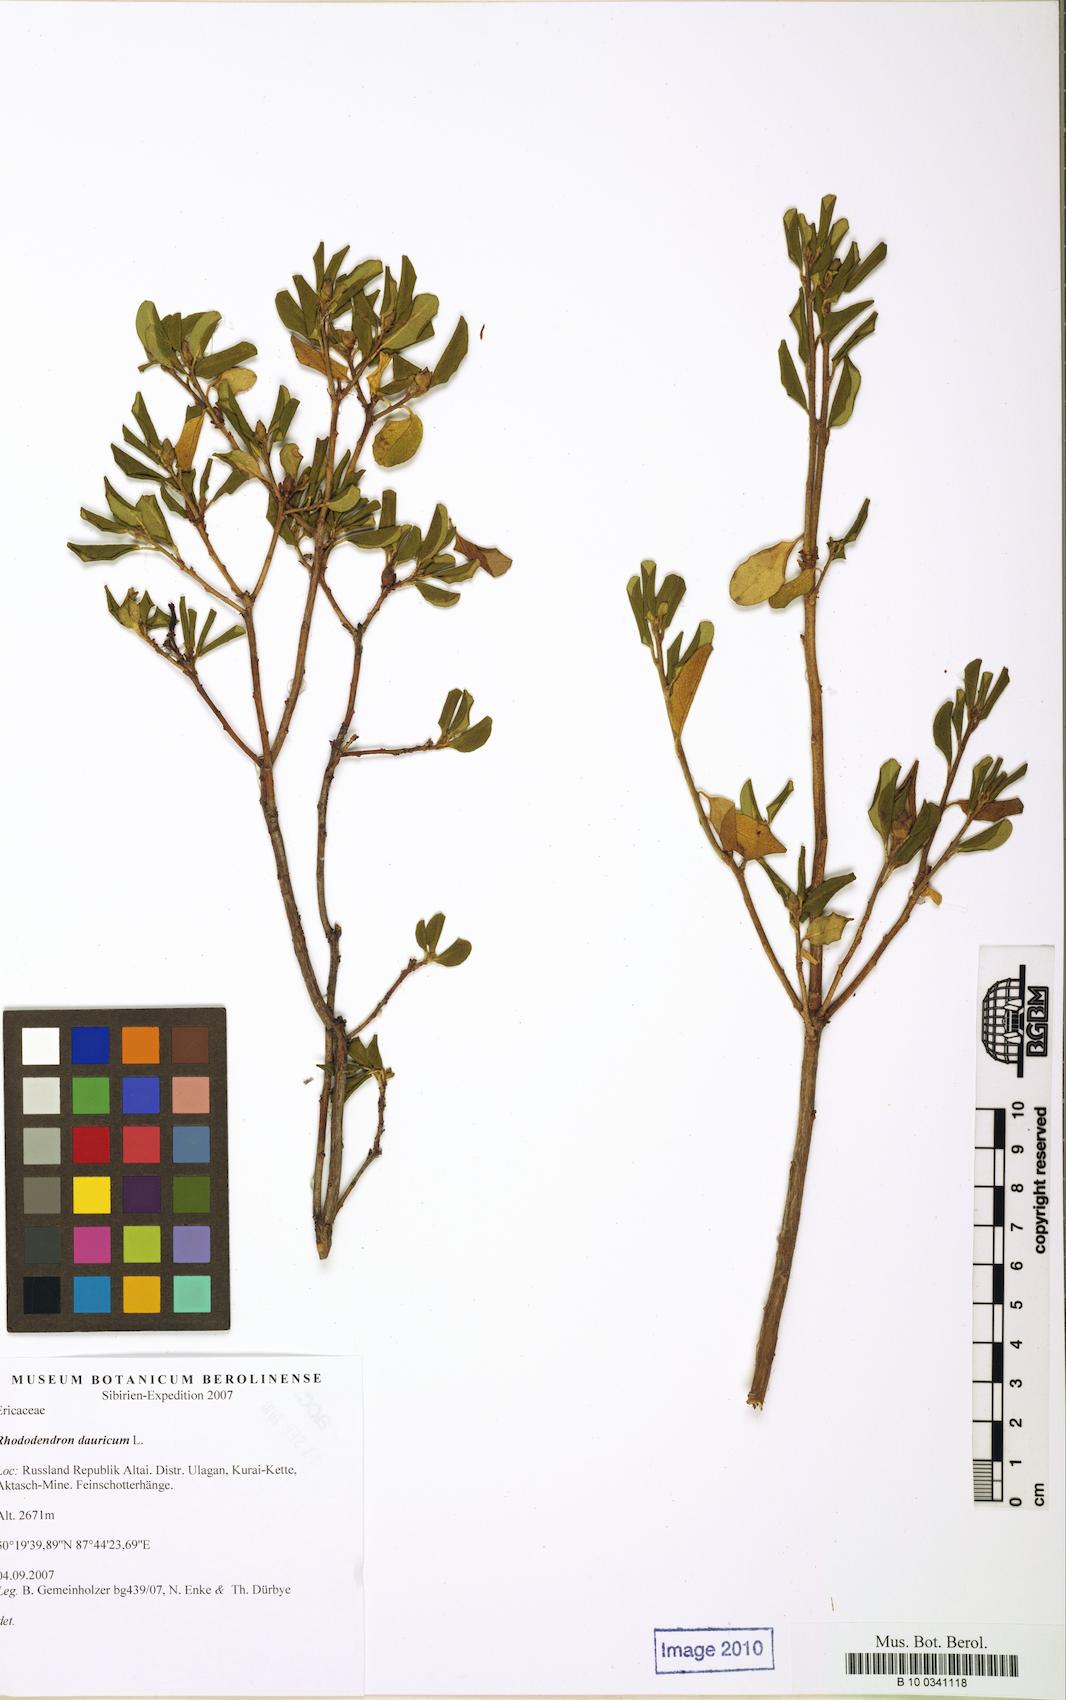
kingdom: Plantae
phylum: Tracheophyta
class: Magnoliopsida
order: Ericales
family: Ericaceae
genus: Rhododendron
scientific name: Rhododendron dauricum
